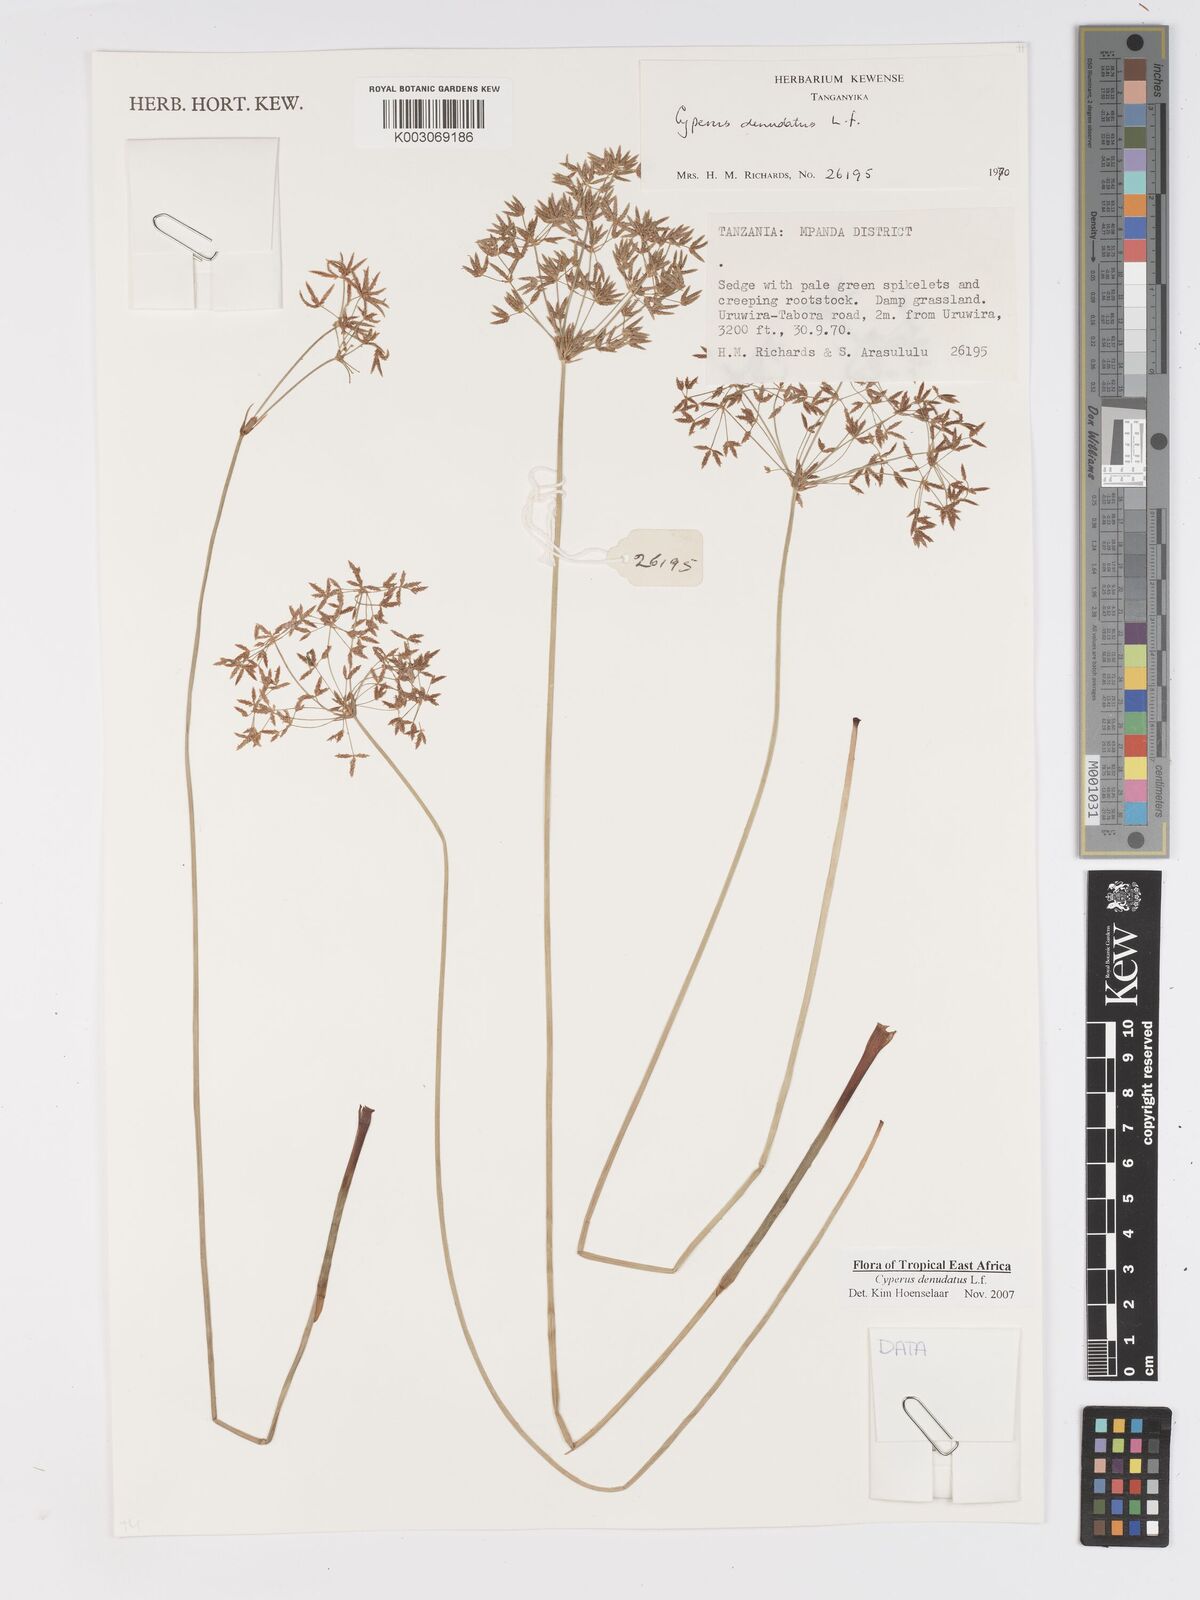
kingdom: Plantae
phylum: Tracheophyta
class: Liliopsida
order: Poales
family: Cyperaceae
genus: Cyperus
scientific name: Cyperus denudatus
